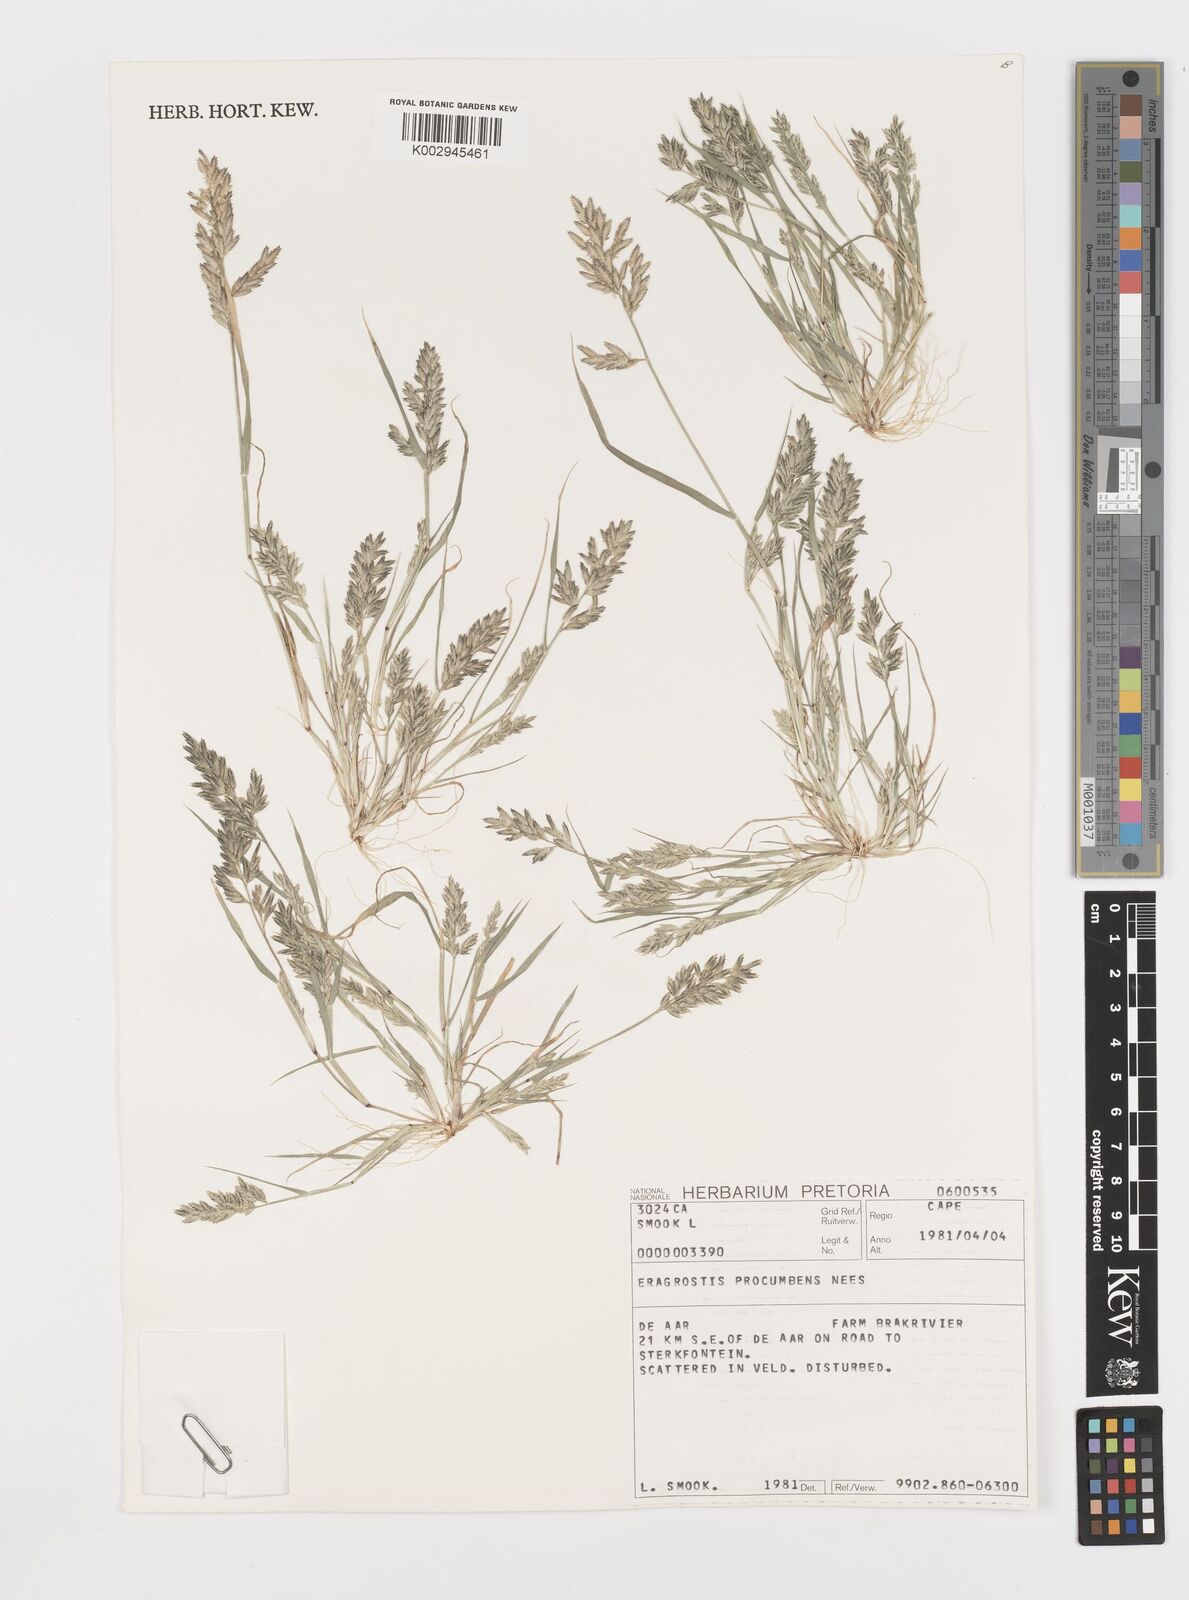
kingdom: Plantae
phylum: Tracheophyta
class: Liliopsida
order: Poales
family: Poaceae
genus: Eragrostis
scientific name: Eragrostis procumbens
